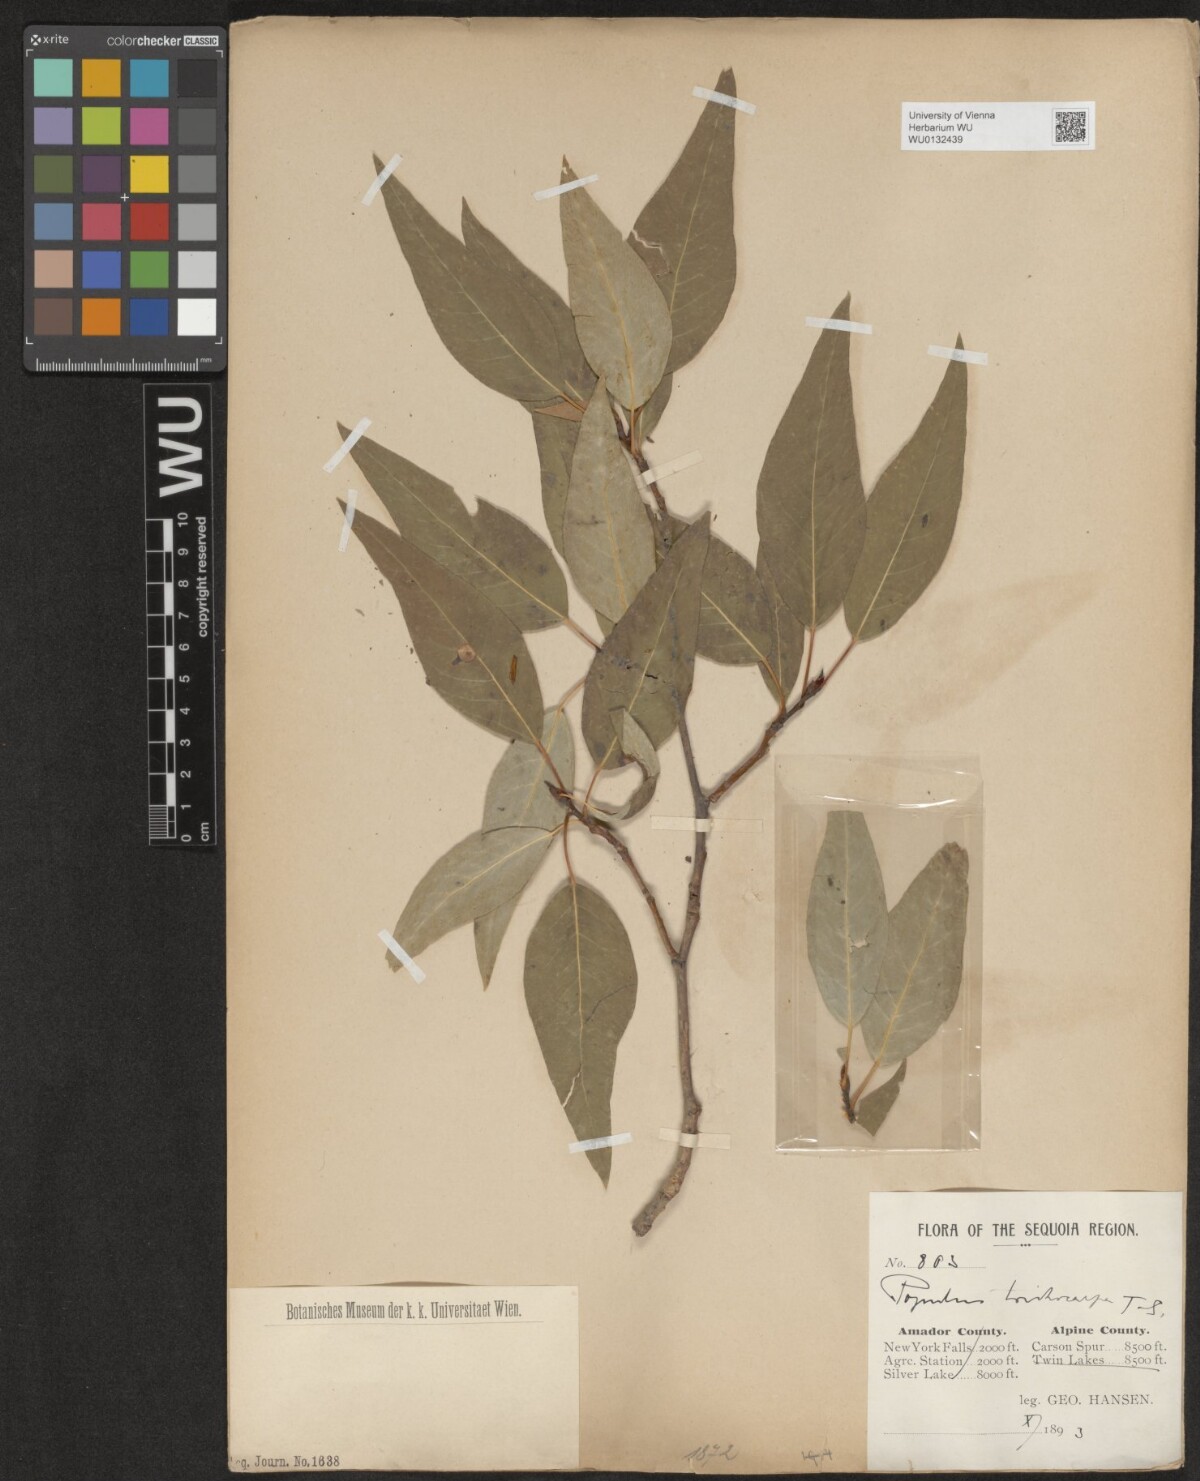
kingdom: Plantae
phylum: Tracheophyta
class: Magnoliopsida
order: Malpighiales
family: Salicaceae
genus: Populus
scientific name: Populus trichocarpa
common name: Black cottonwood
